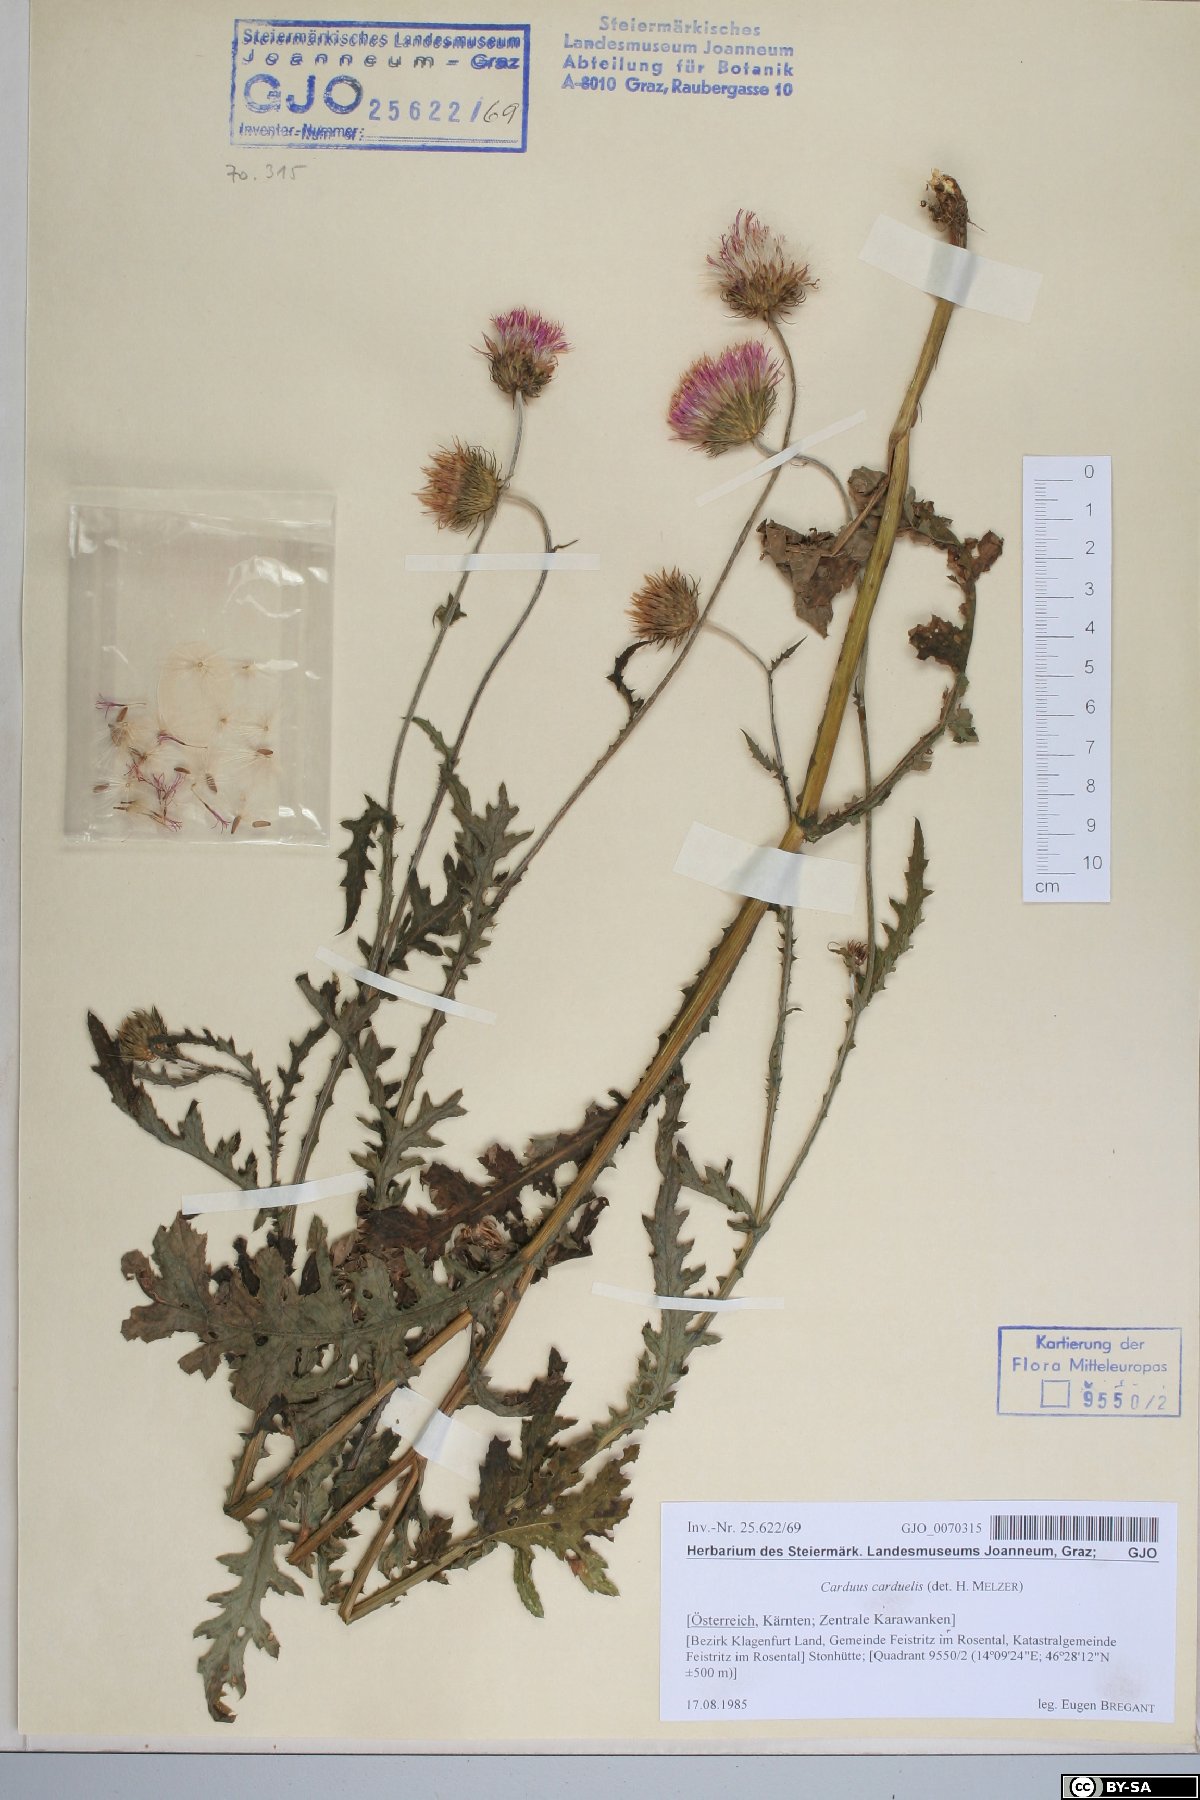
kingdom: Plantae
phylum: Tracheophyta
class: Magnoliopsida
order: Asterales
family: Asteraceae
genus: Carduus
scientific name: Carduus carduelis
